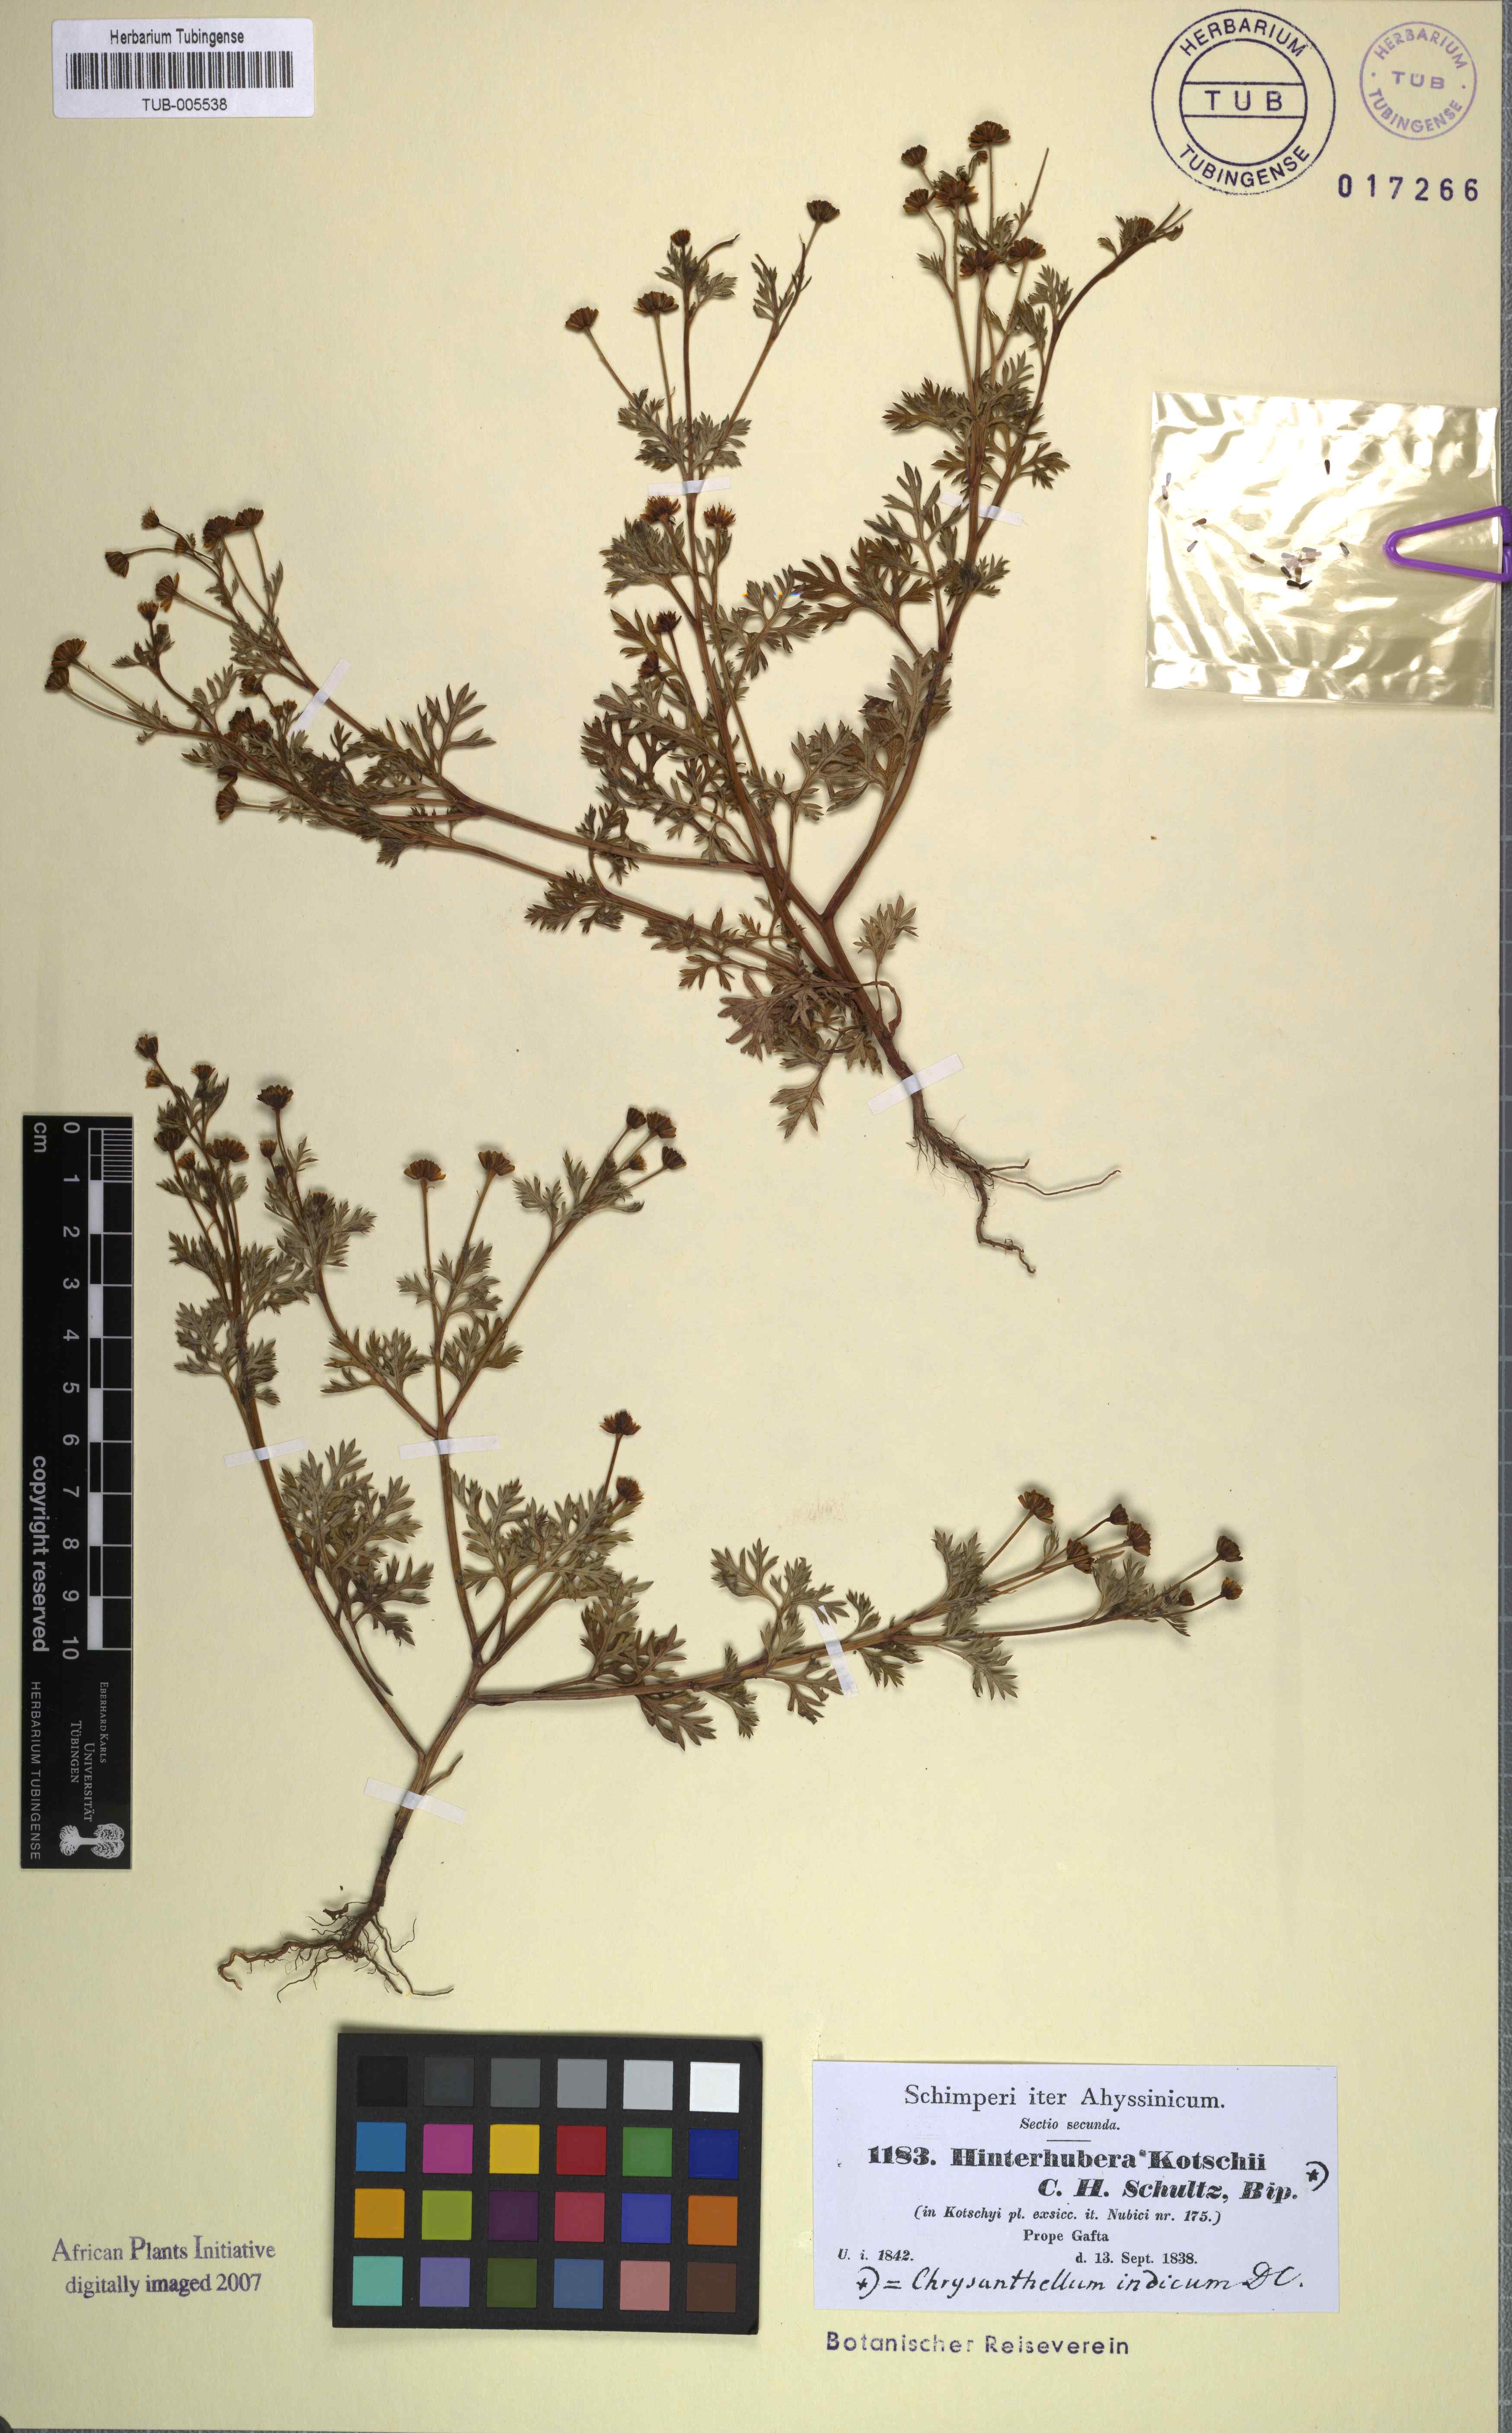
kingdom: Plantae
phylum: Tracheophyta
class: Magnoliopsida
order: Asterales
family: Asteraceae
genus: Chrysanthellum
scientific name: Chrysanthellum indicum
